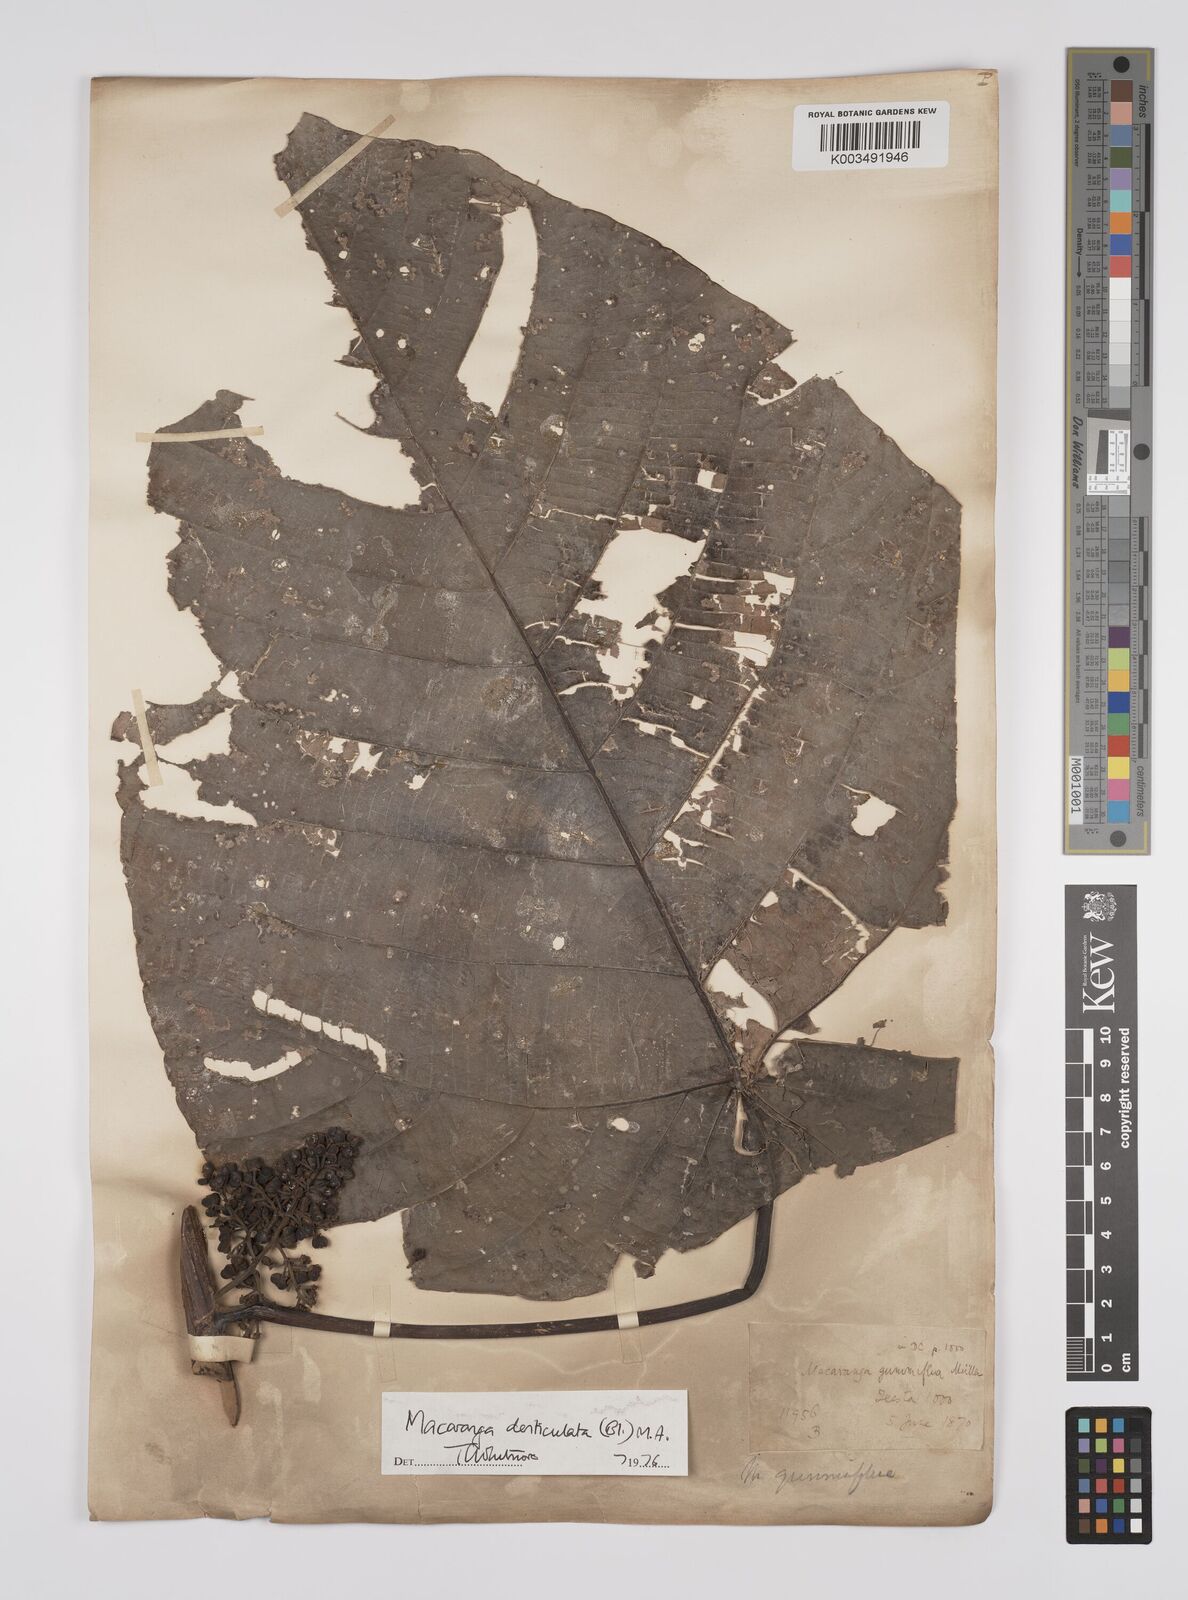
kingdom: Plantae
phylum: Tracheophyta
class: Magnoliopsida
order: Malpighiales
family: Euphorbiaceae
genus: Macaranga
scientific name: Macaranga denticulata
